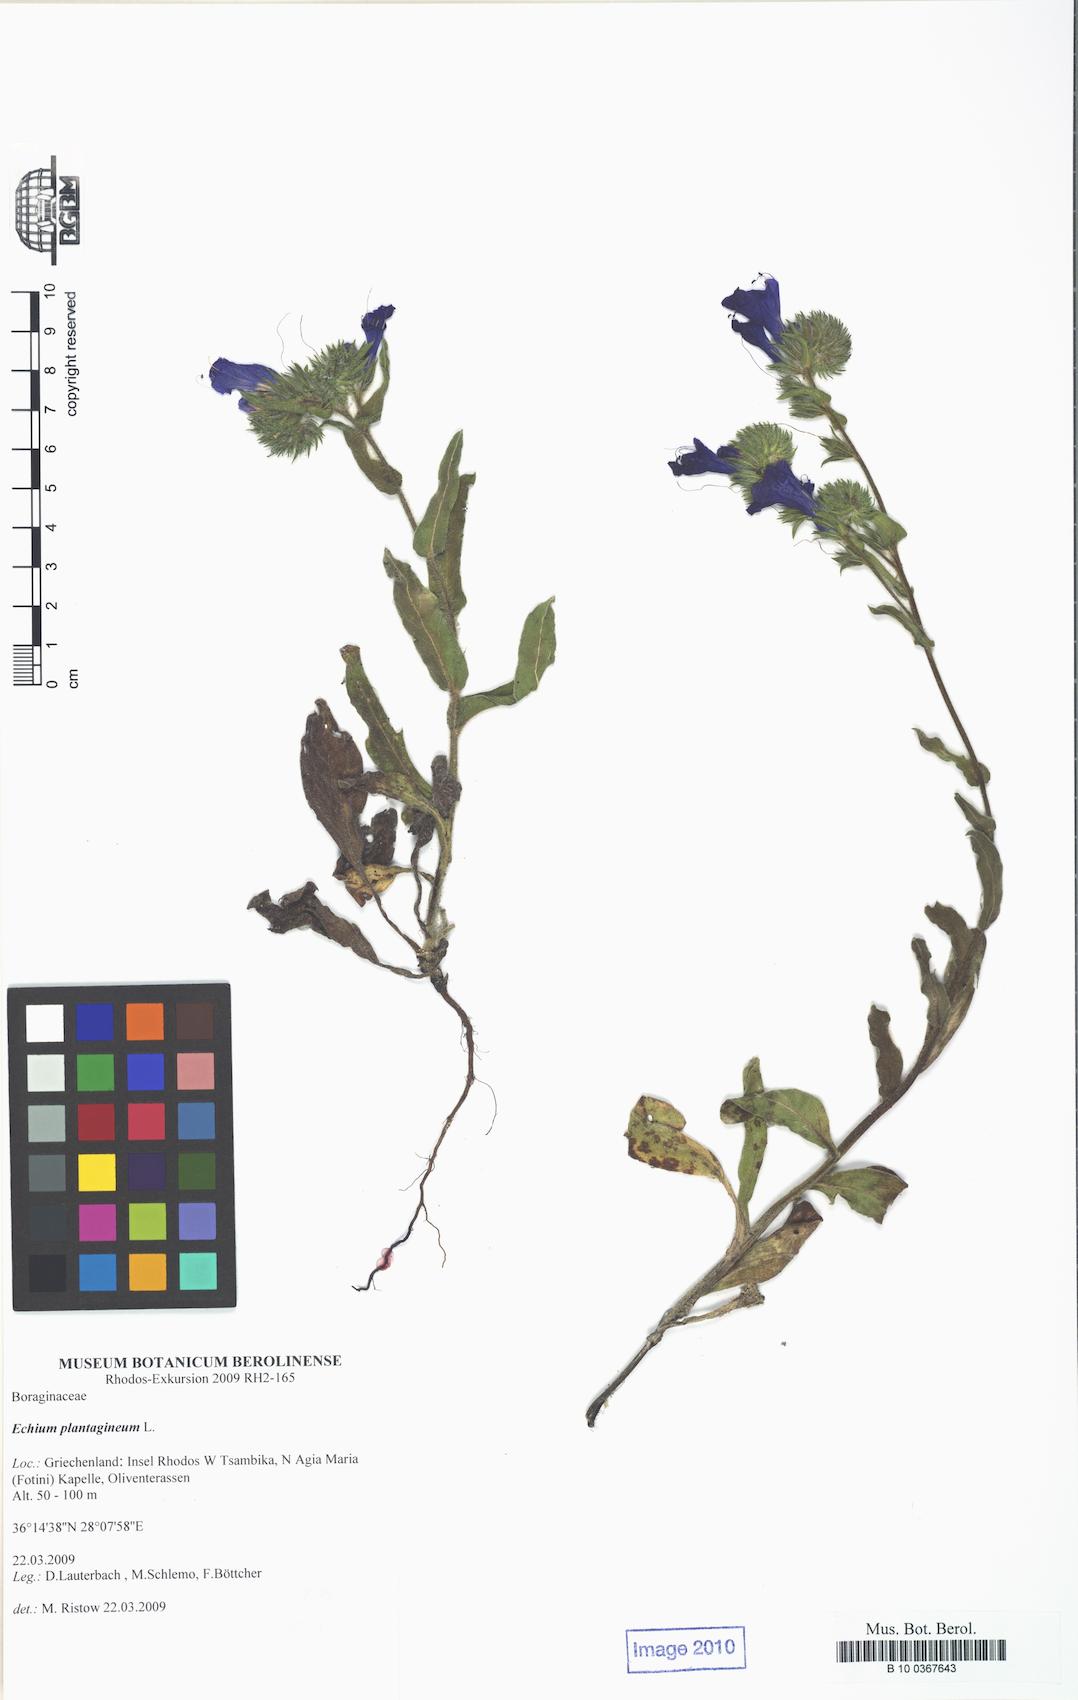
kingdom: Plantae
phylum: Tracheophyta
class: Magnoliopsida
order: Boraginales
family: Boraginaceae
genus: Echium
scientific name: Echium plantagineum
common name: Purple viper's-bugloss
